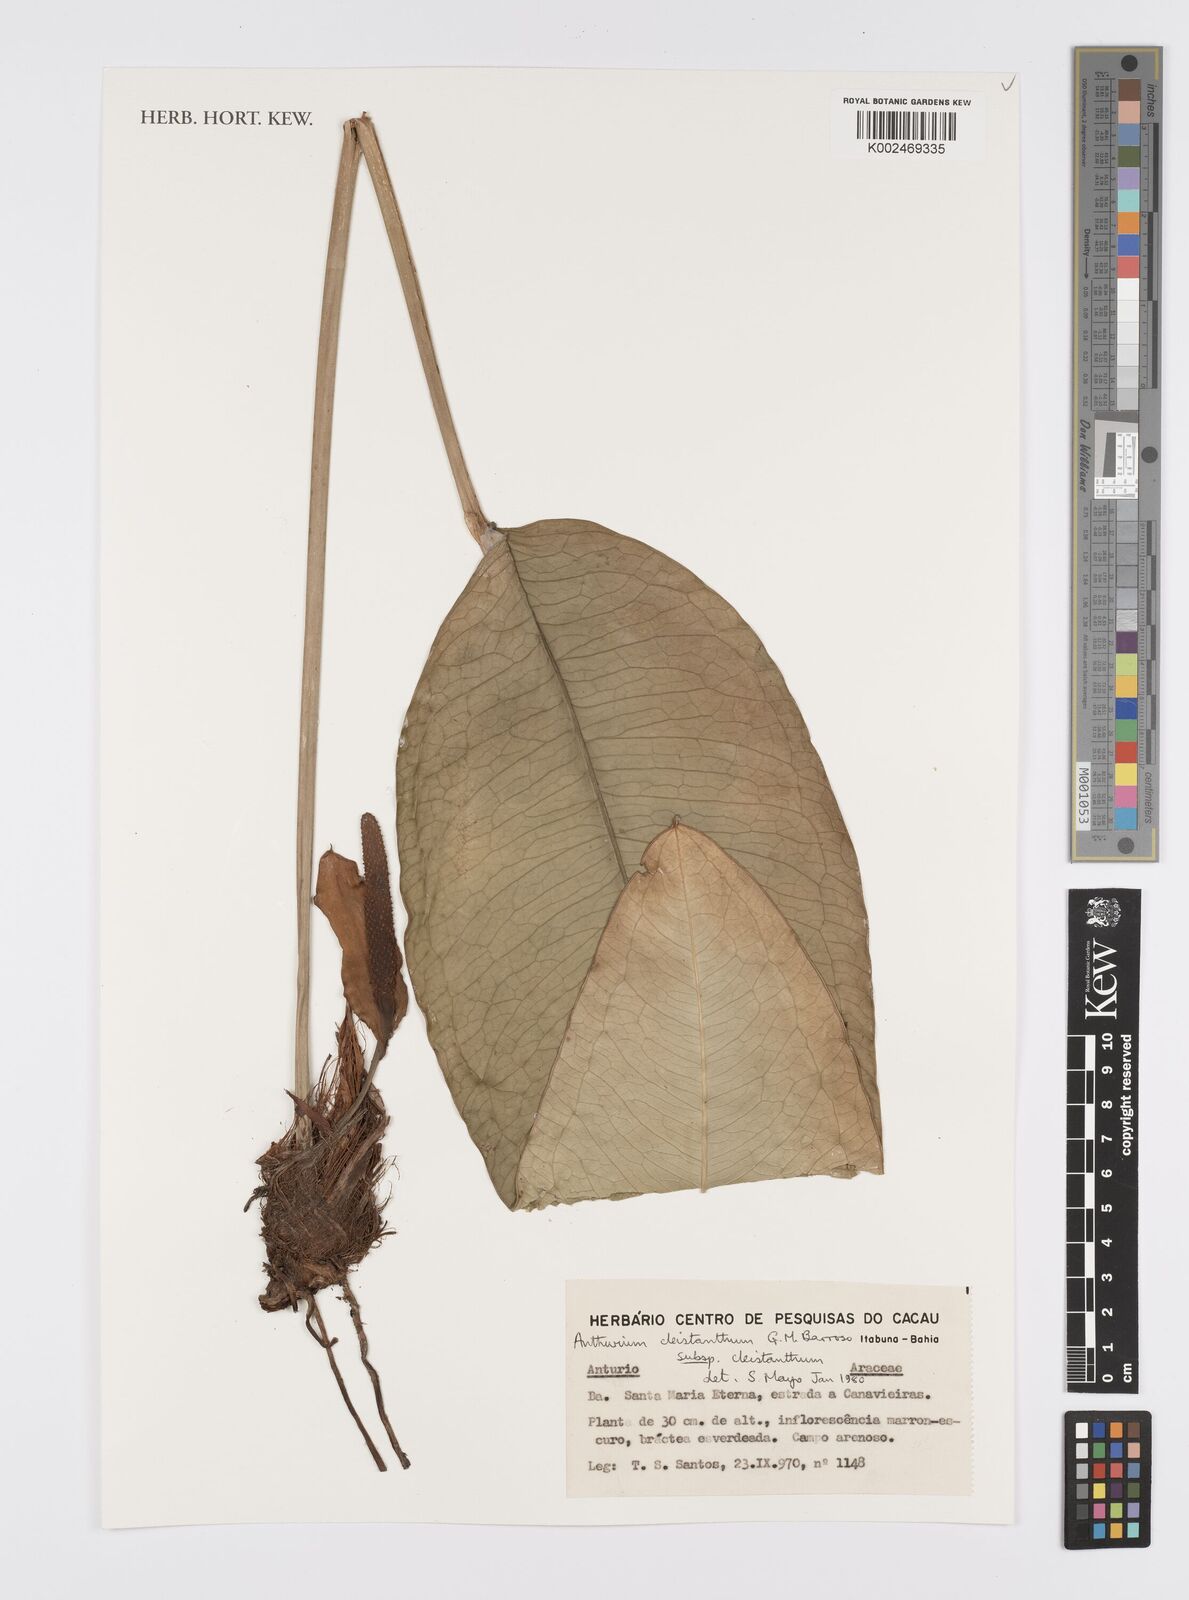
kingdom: Plantae
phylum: Tracheophyta
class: Liliopsida
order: Alismatales
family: Araceae
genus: Anthurium
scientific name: Anthurium cleistanthum
